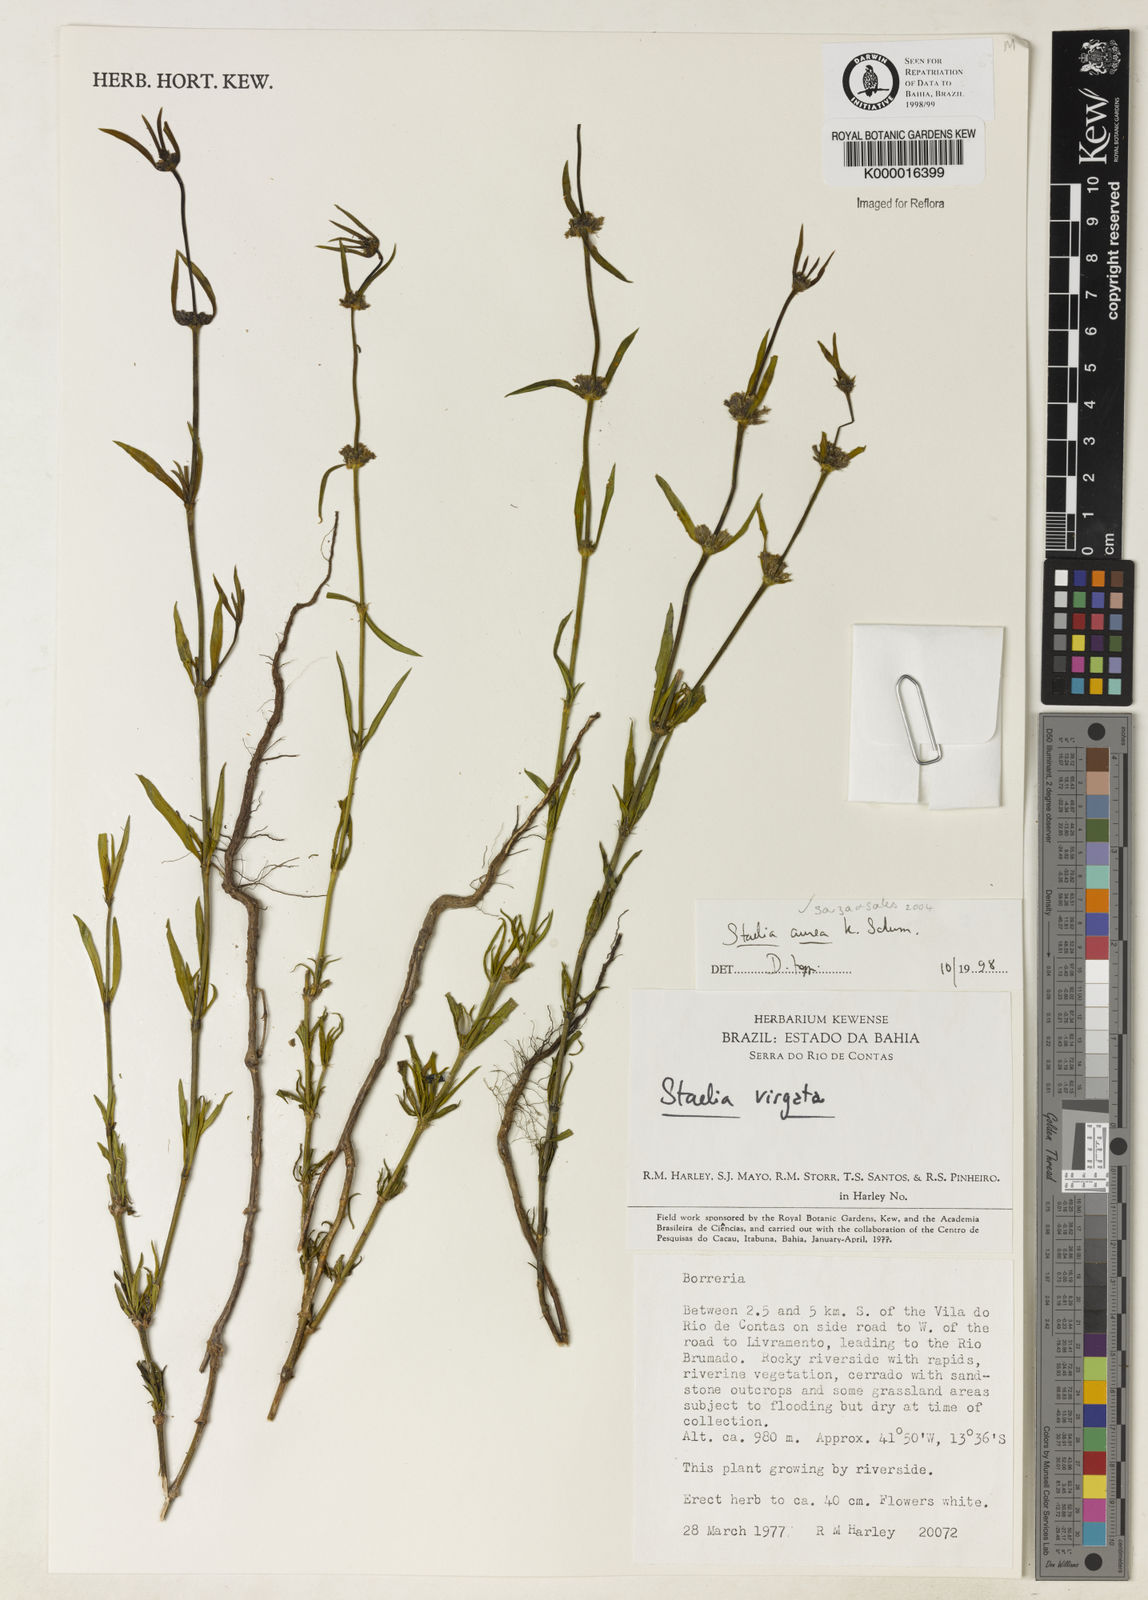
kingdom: Plantae
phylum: Tracheophyta
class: Magnoliopsida
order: Gentianales
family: Rubiaceae
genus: Staelia
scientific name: Staelia aurea
